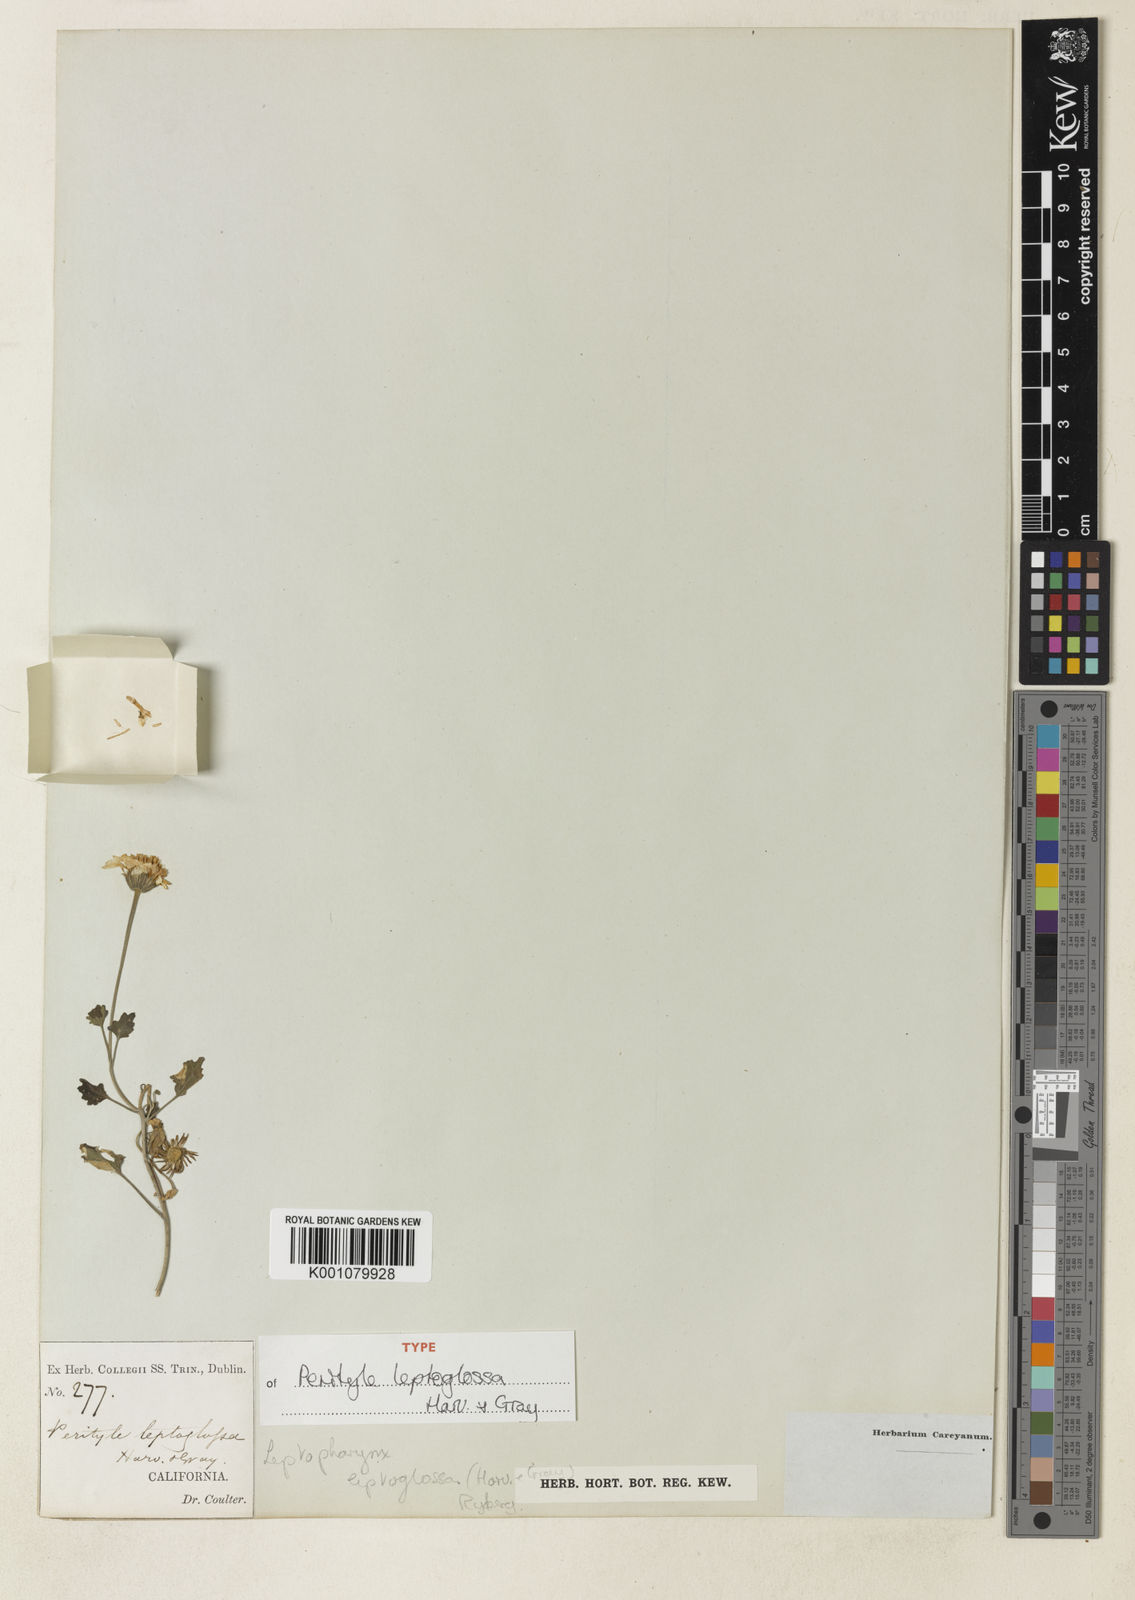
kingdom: Plantae
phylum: Tracheophyta
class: Magnoliopsida
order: Asterales
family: Asteraceae
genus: Laphamia
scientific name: Laphamia leptoglossa
